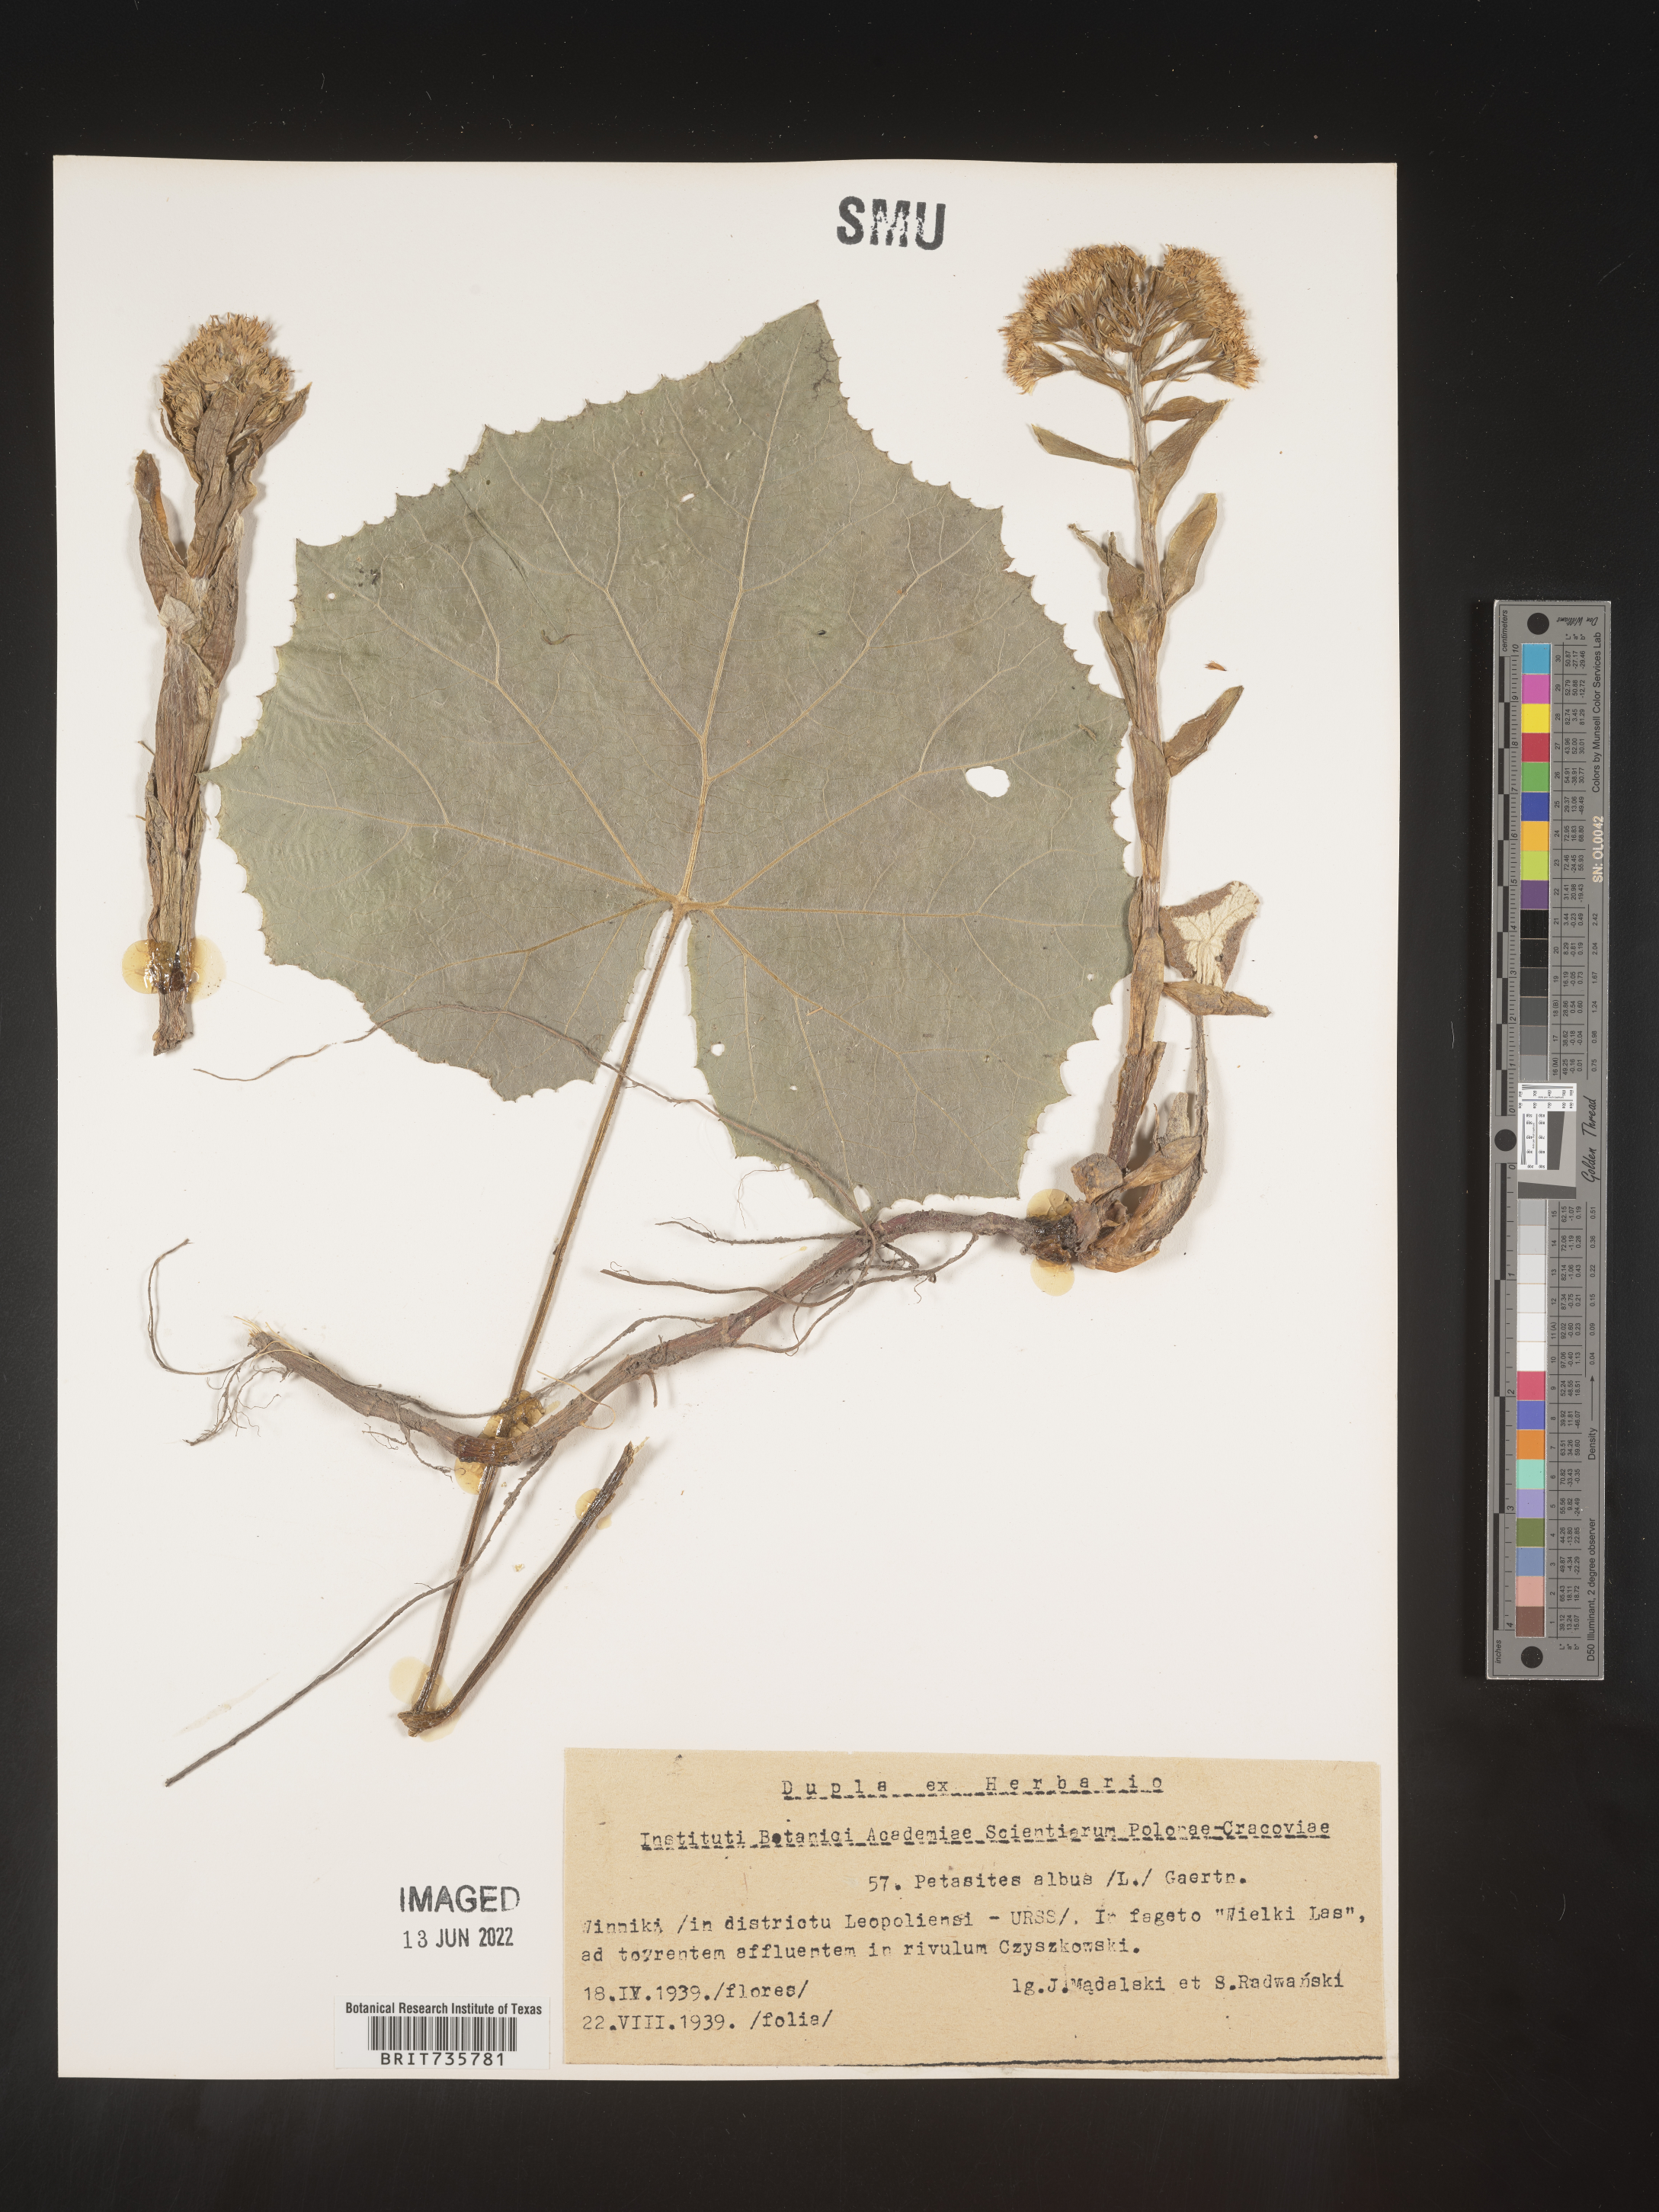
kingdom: Plantae
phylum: Tracheophyta
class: Magnoliopsida
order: Asterales
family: Asteraceae
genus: Petasites
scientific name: Petasites
